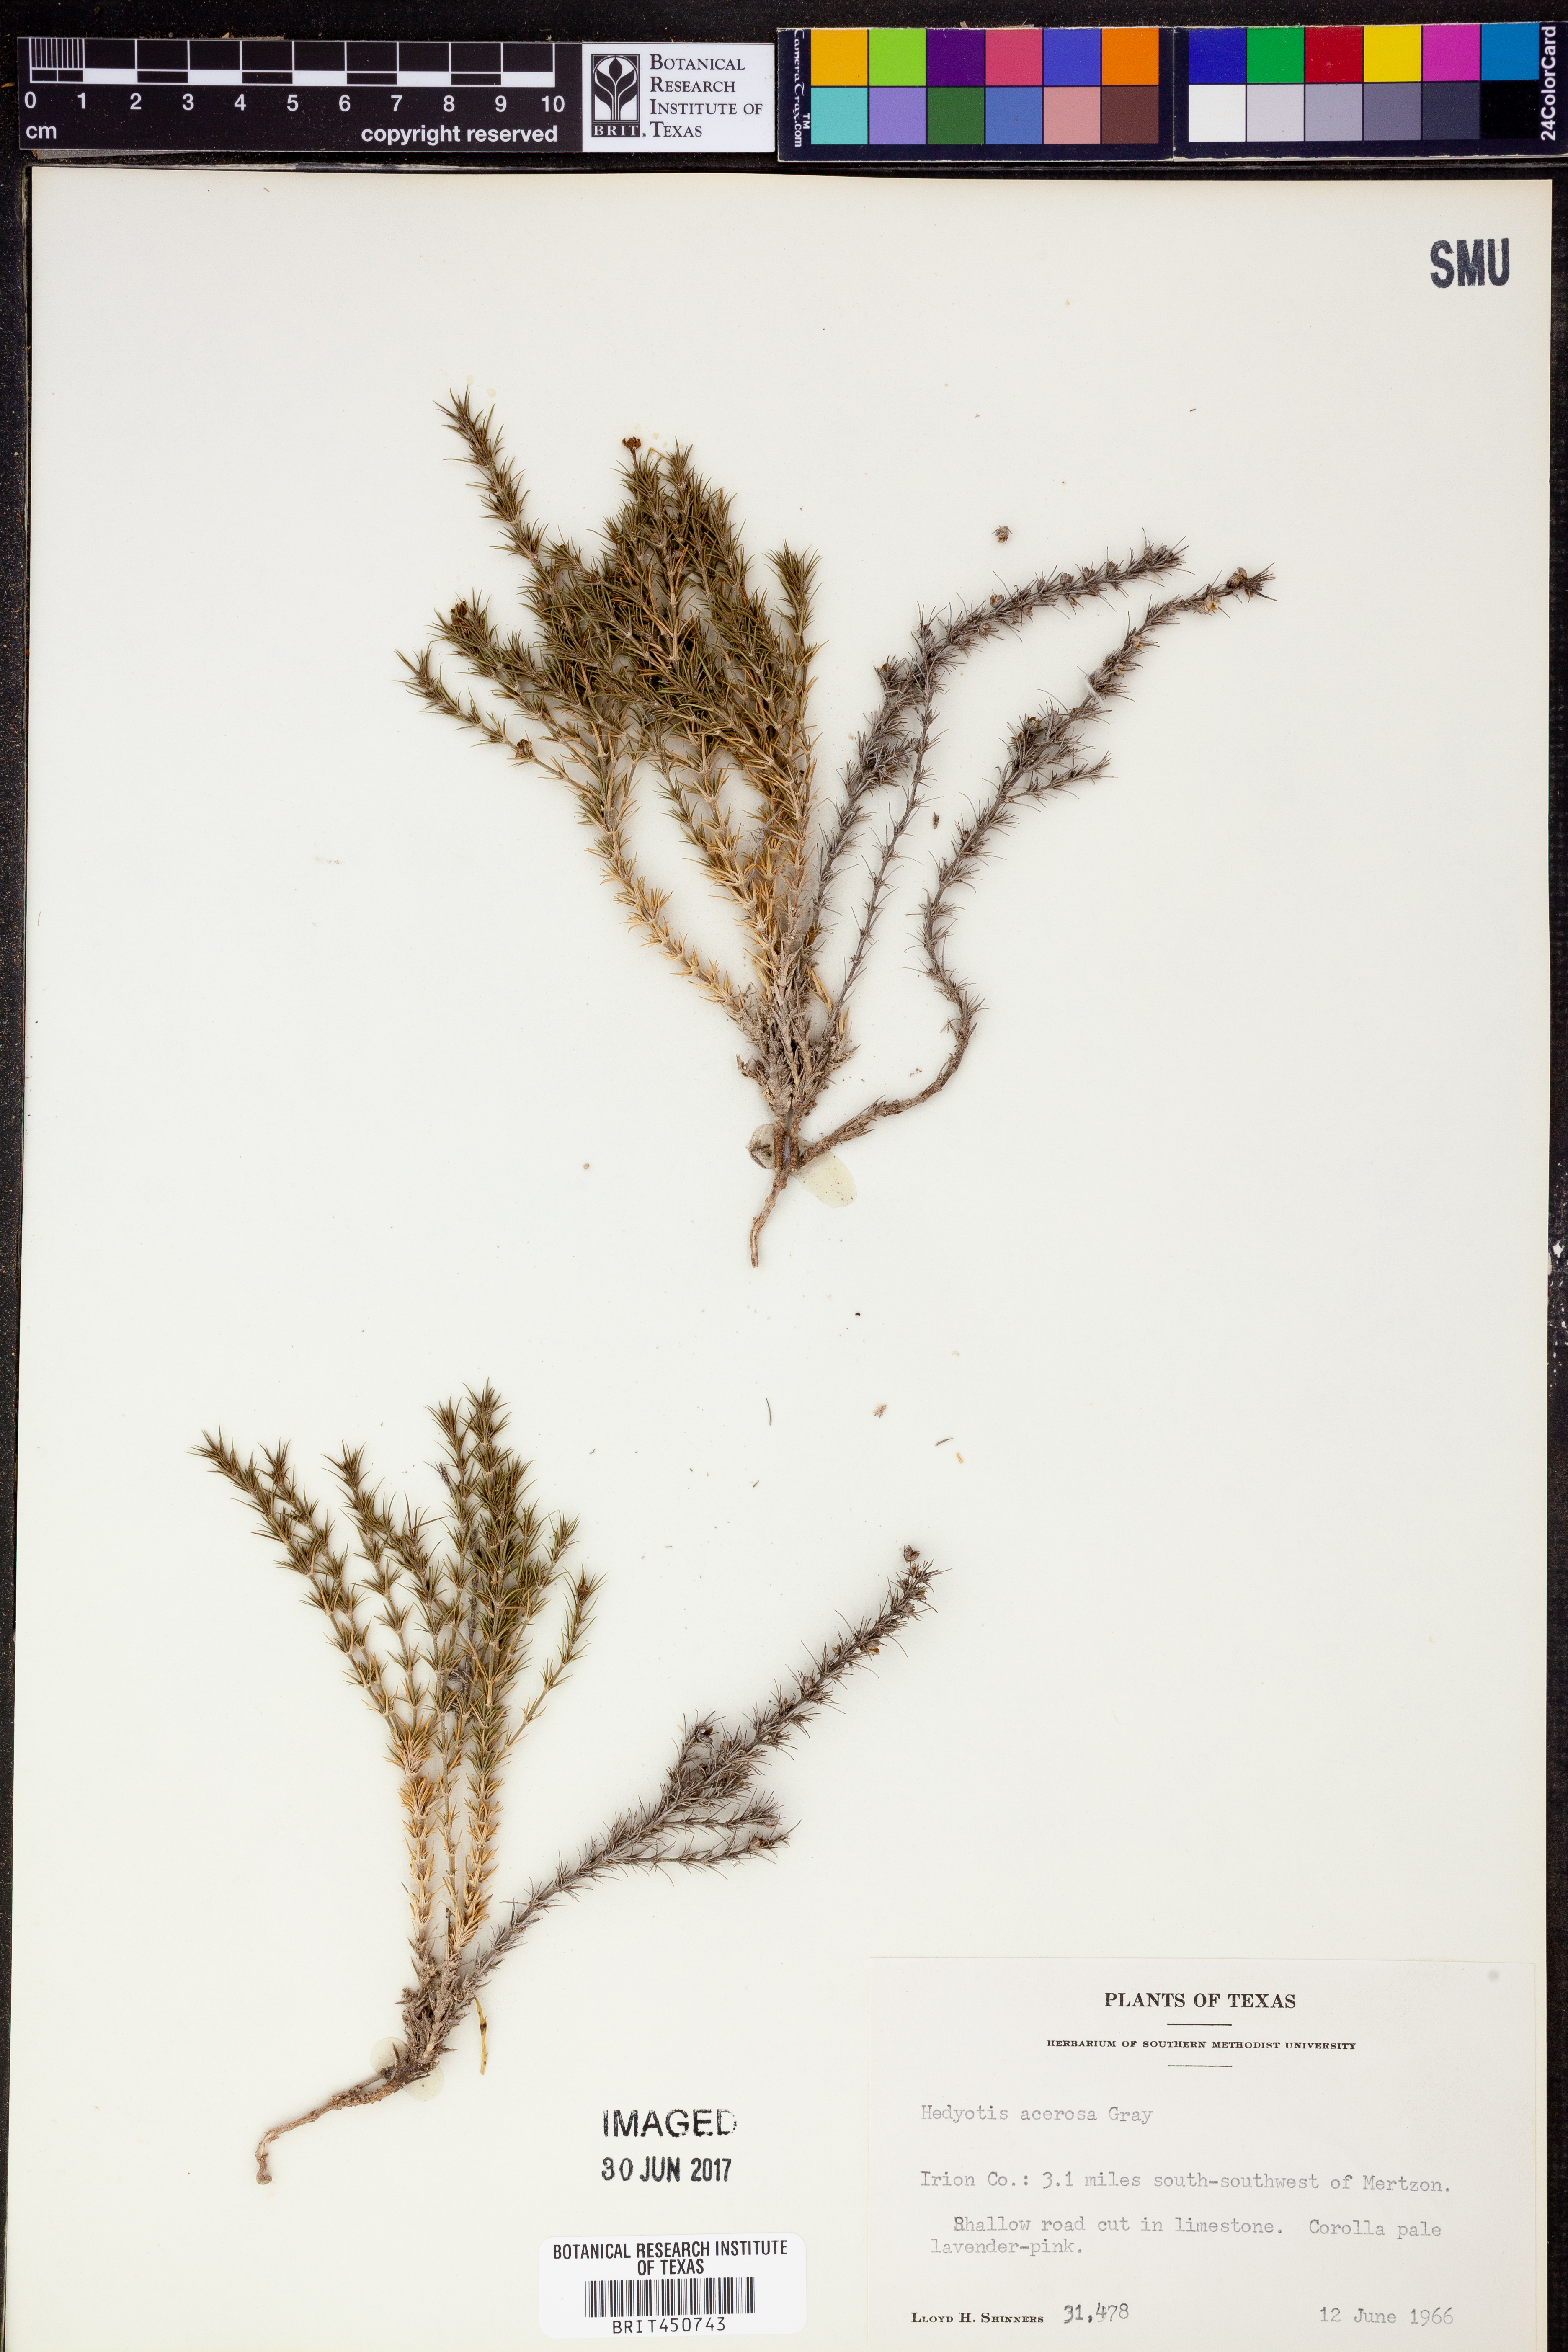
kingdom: Plantae
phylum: Tracheophyta
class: Magnoliopsida
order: Gentianales
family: Rubiaceae
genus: Houstonia
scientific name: Houstonia acerosa
